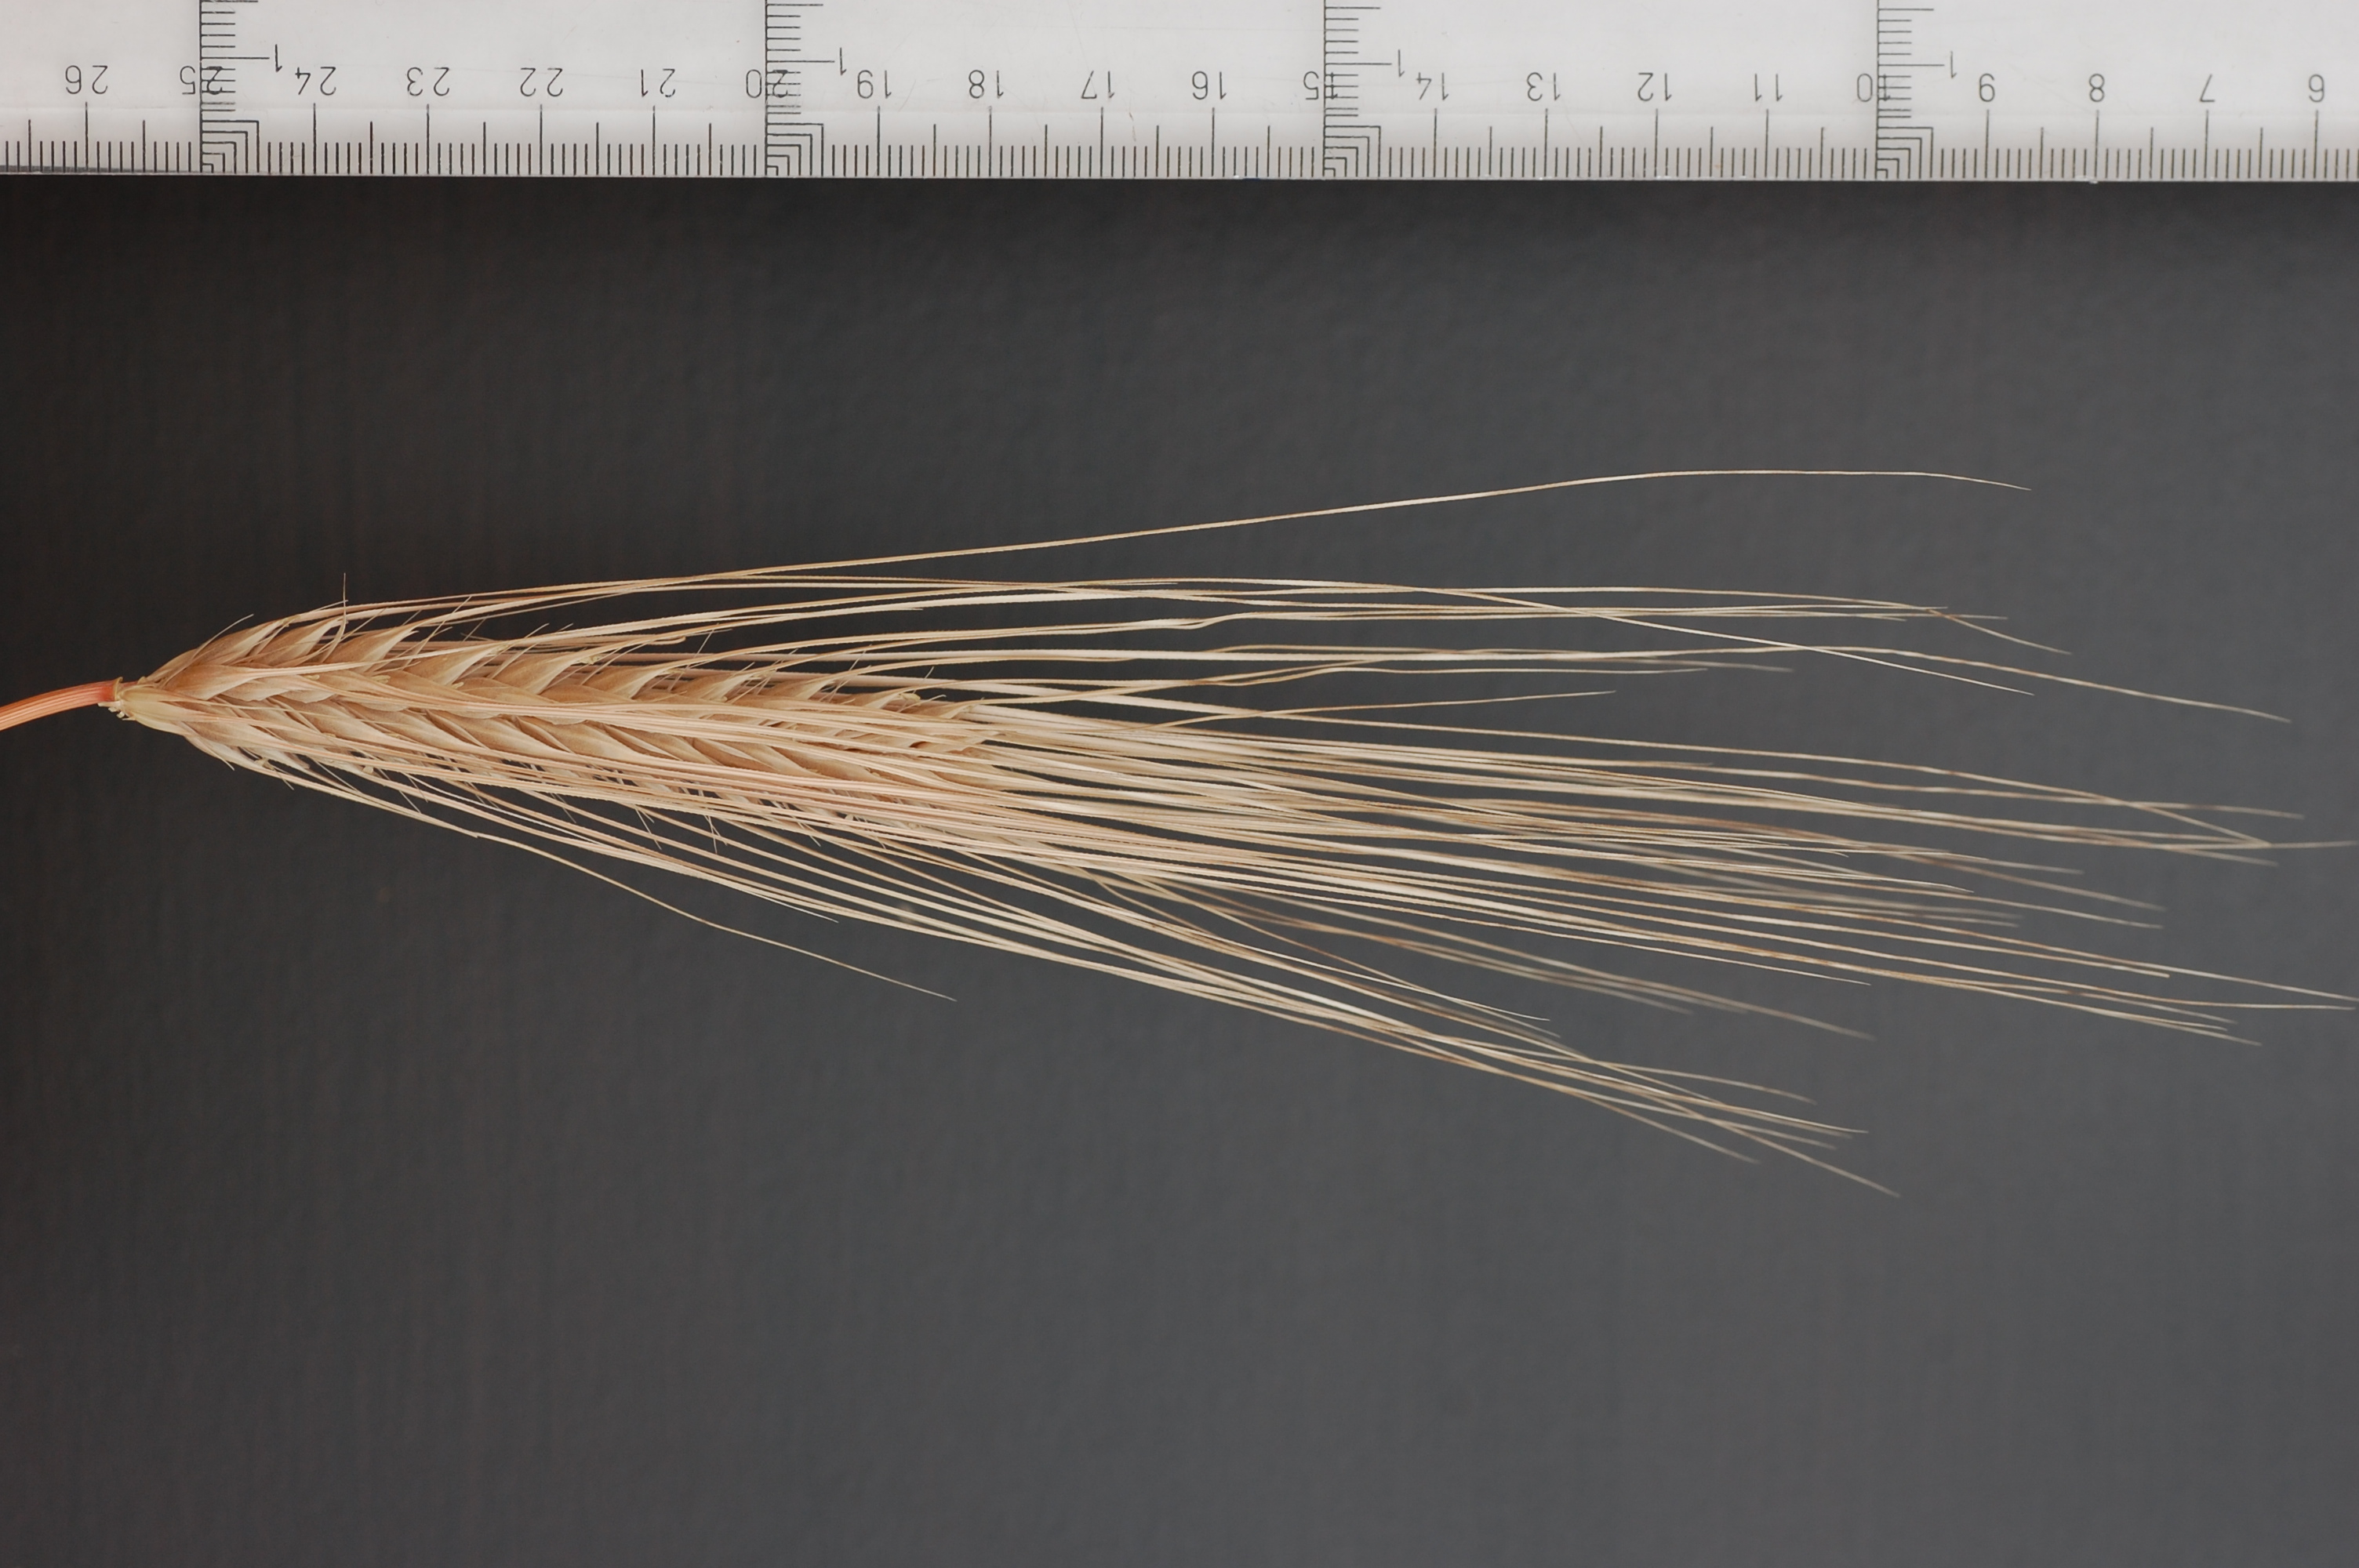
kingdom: Plantae
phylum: Tracheophyta
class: Liliopsida
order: Poales
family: Poaceae
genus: Hordeum
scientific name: Hordeum vulgare
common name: Common barley
